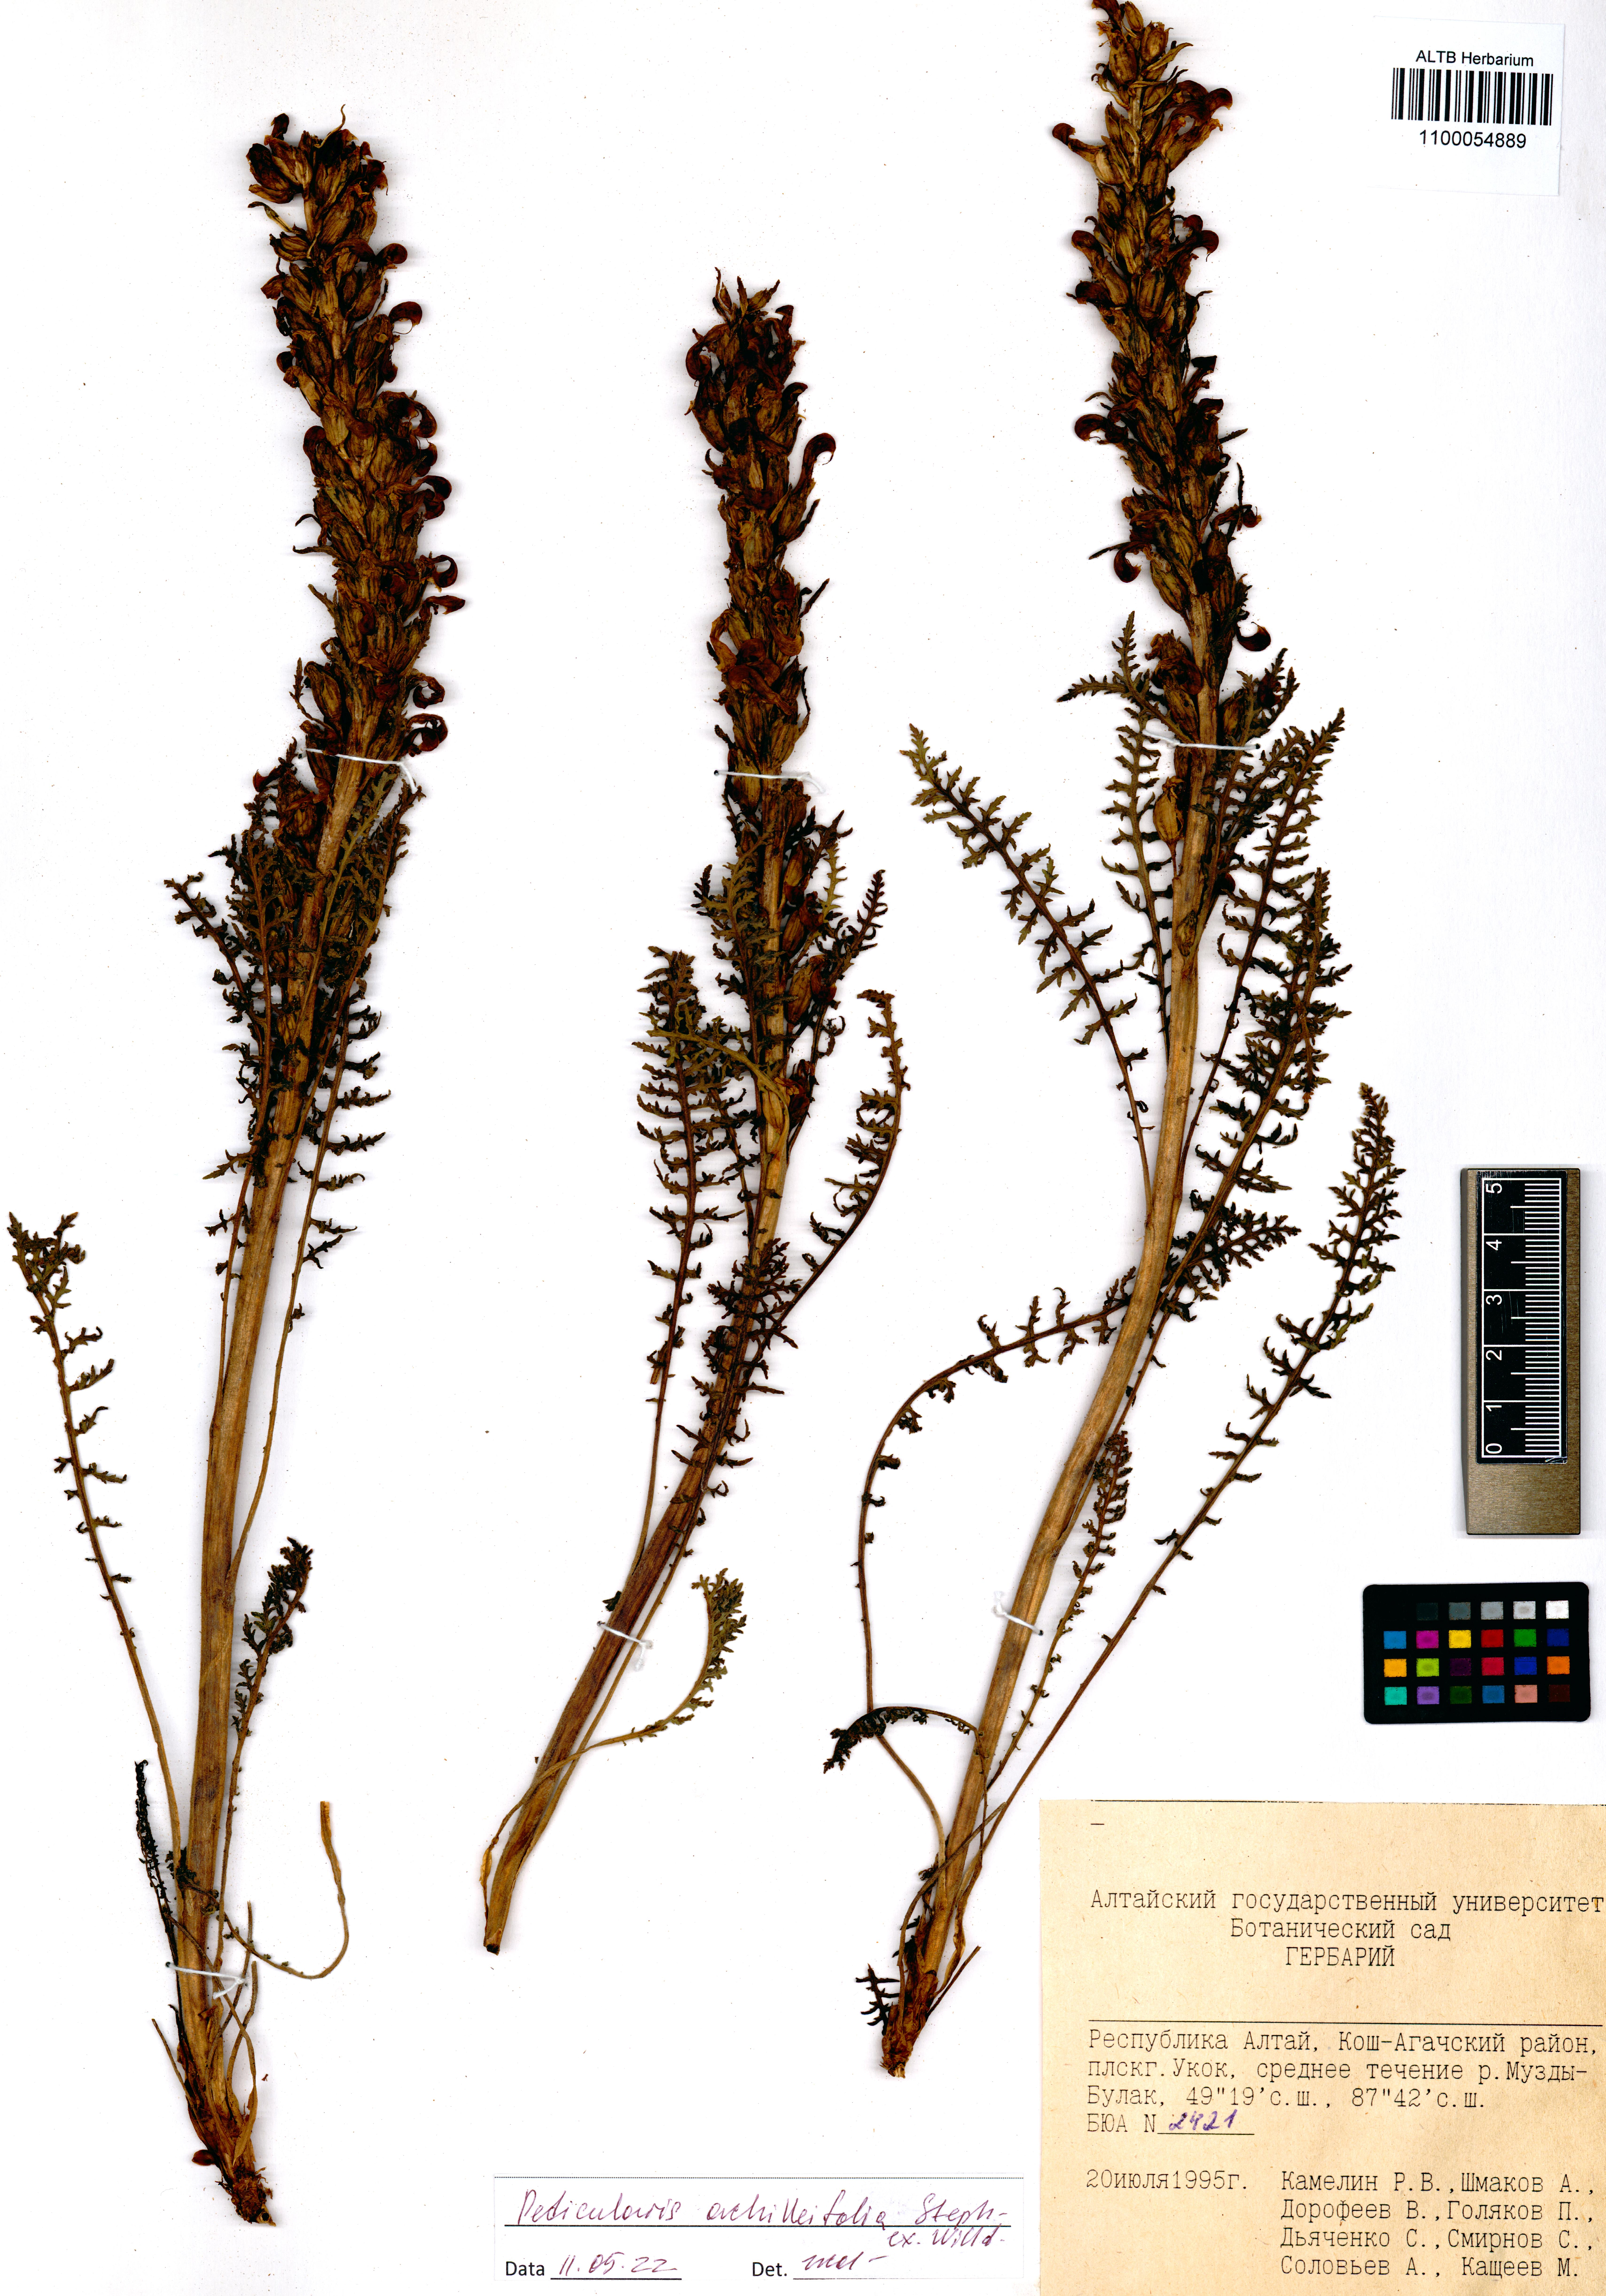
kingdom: Plantae
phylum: Tracheophyta
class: Magnoliopsida
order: Lamiales
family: Orobanchaceae
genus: Pedicularis
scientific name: Pedicularis achilleifolia
